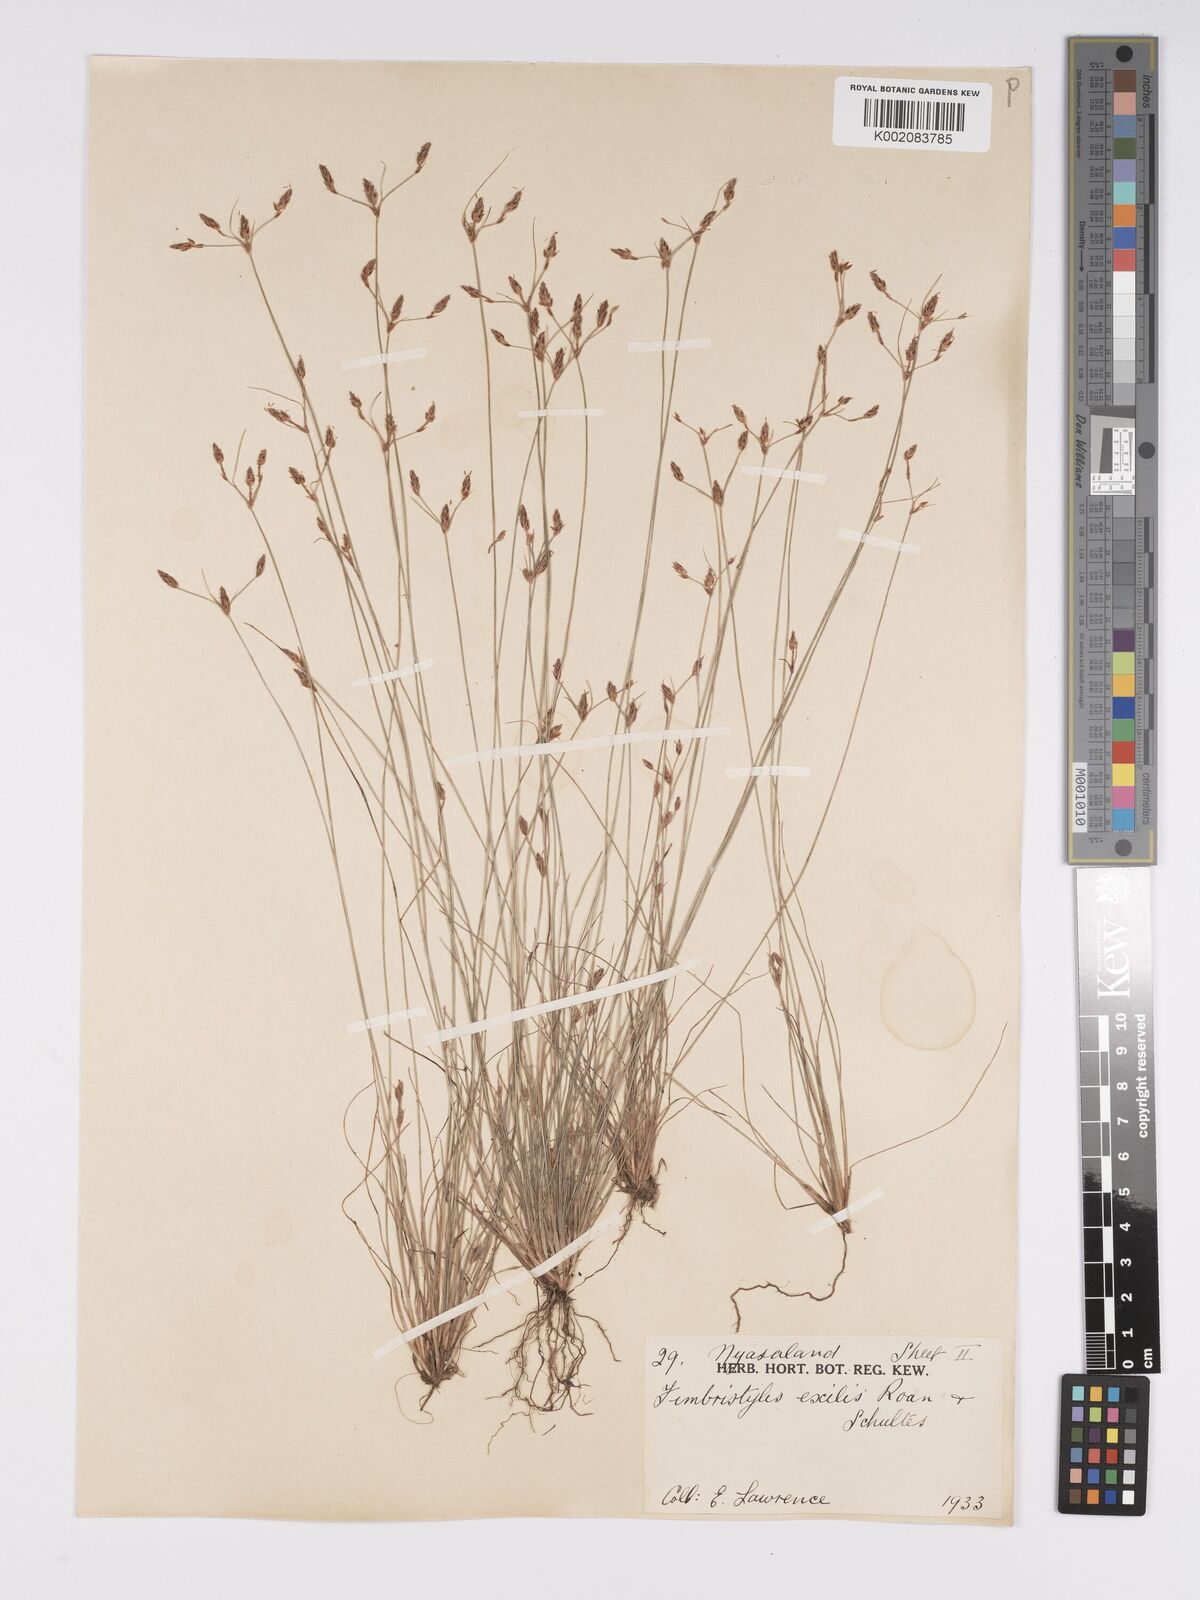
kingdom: Plantae
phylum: Tracheophyta
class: Liliopsida
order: Poales
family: Cyperaceae
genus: Bulbostylis
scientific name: Bulbostylis hispidula
